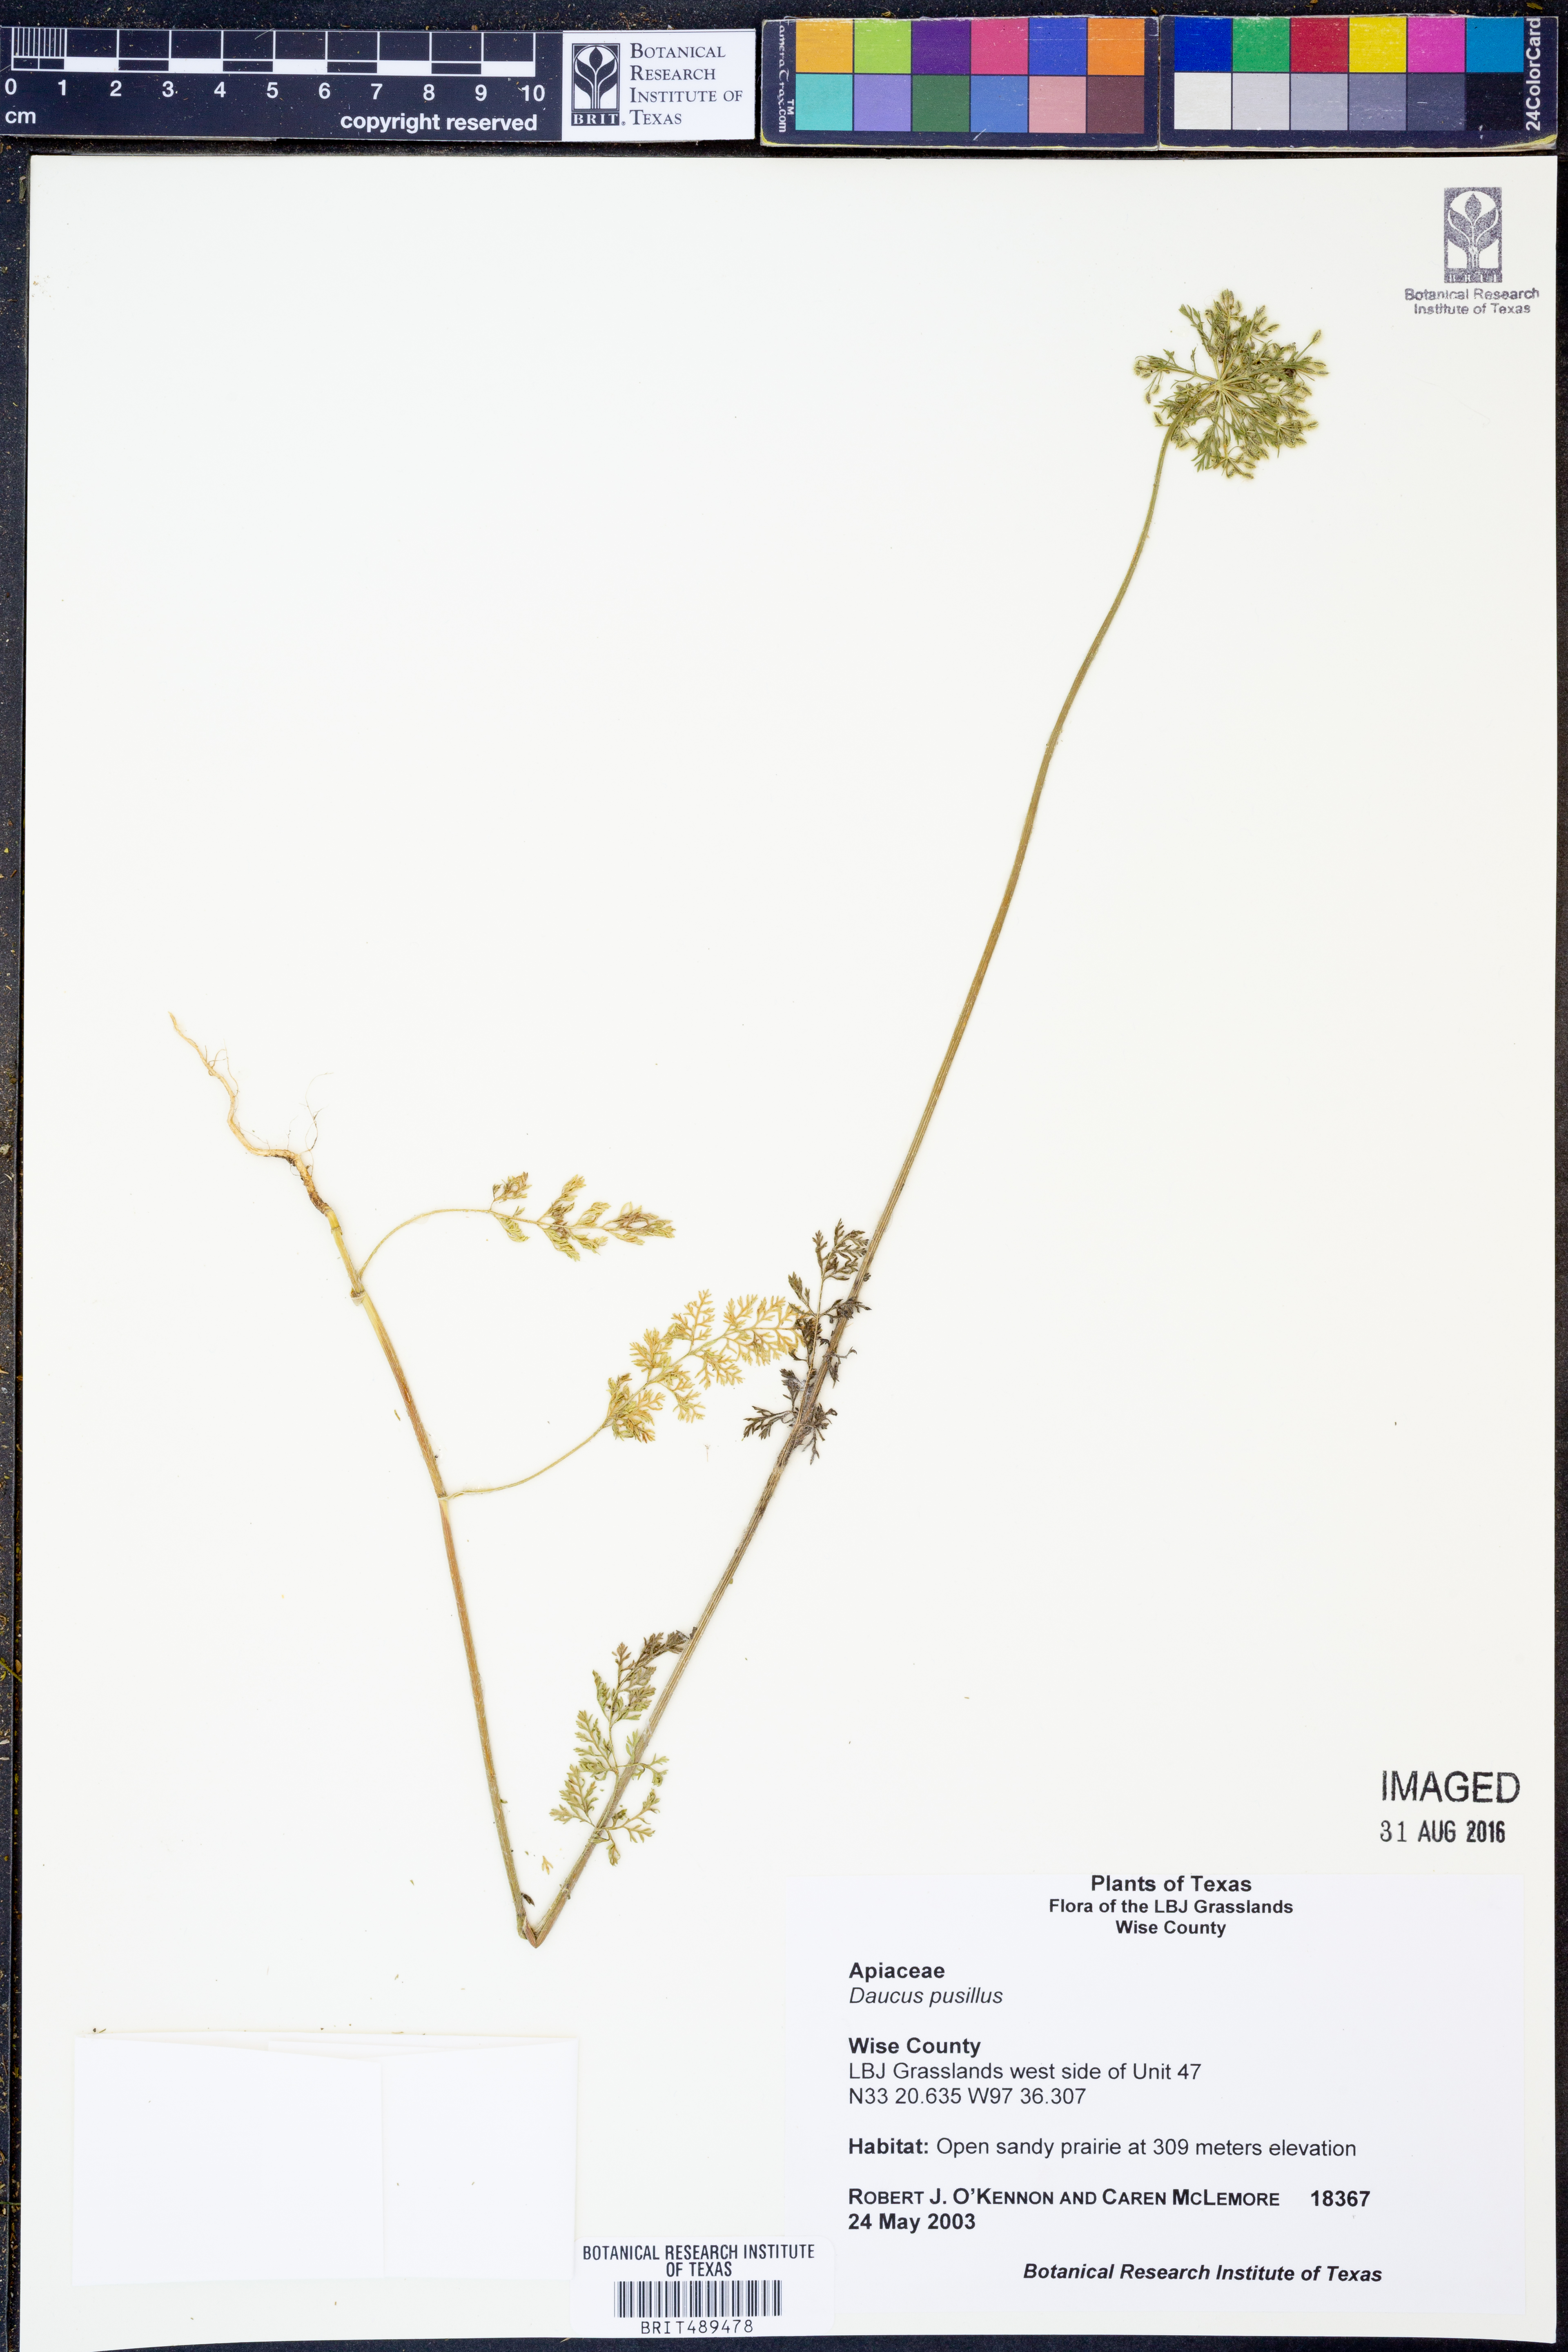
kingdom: Plantae
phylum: Tracheophyta
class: Magnoliopsida
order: Apiales
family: Apiaceae
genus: Daucus
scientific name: Daucus pusillus
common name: Southwest wild carrot
